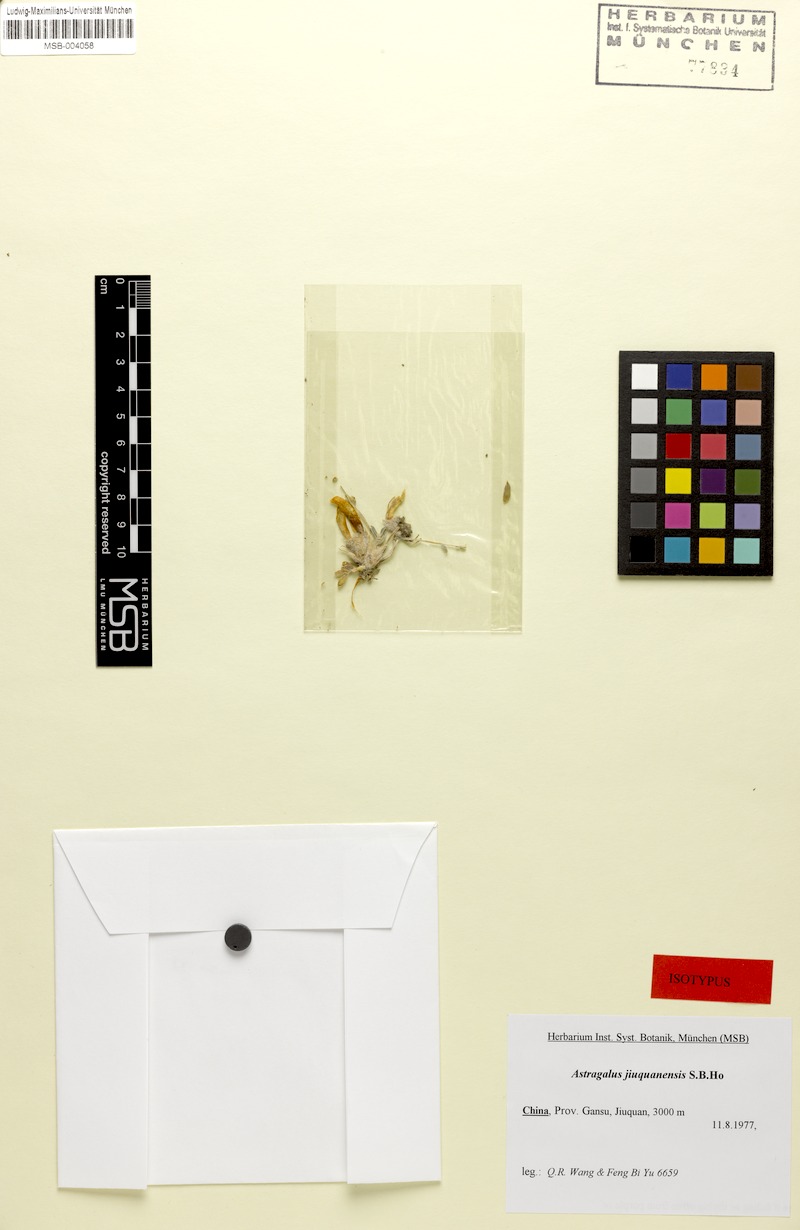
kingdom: Plantae
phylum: Tracheophyta
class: Magnoliopsida
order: Fabales
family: Fabaceae
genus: Astragalus
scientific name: Astragalus jiuquanensis
